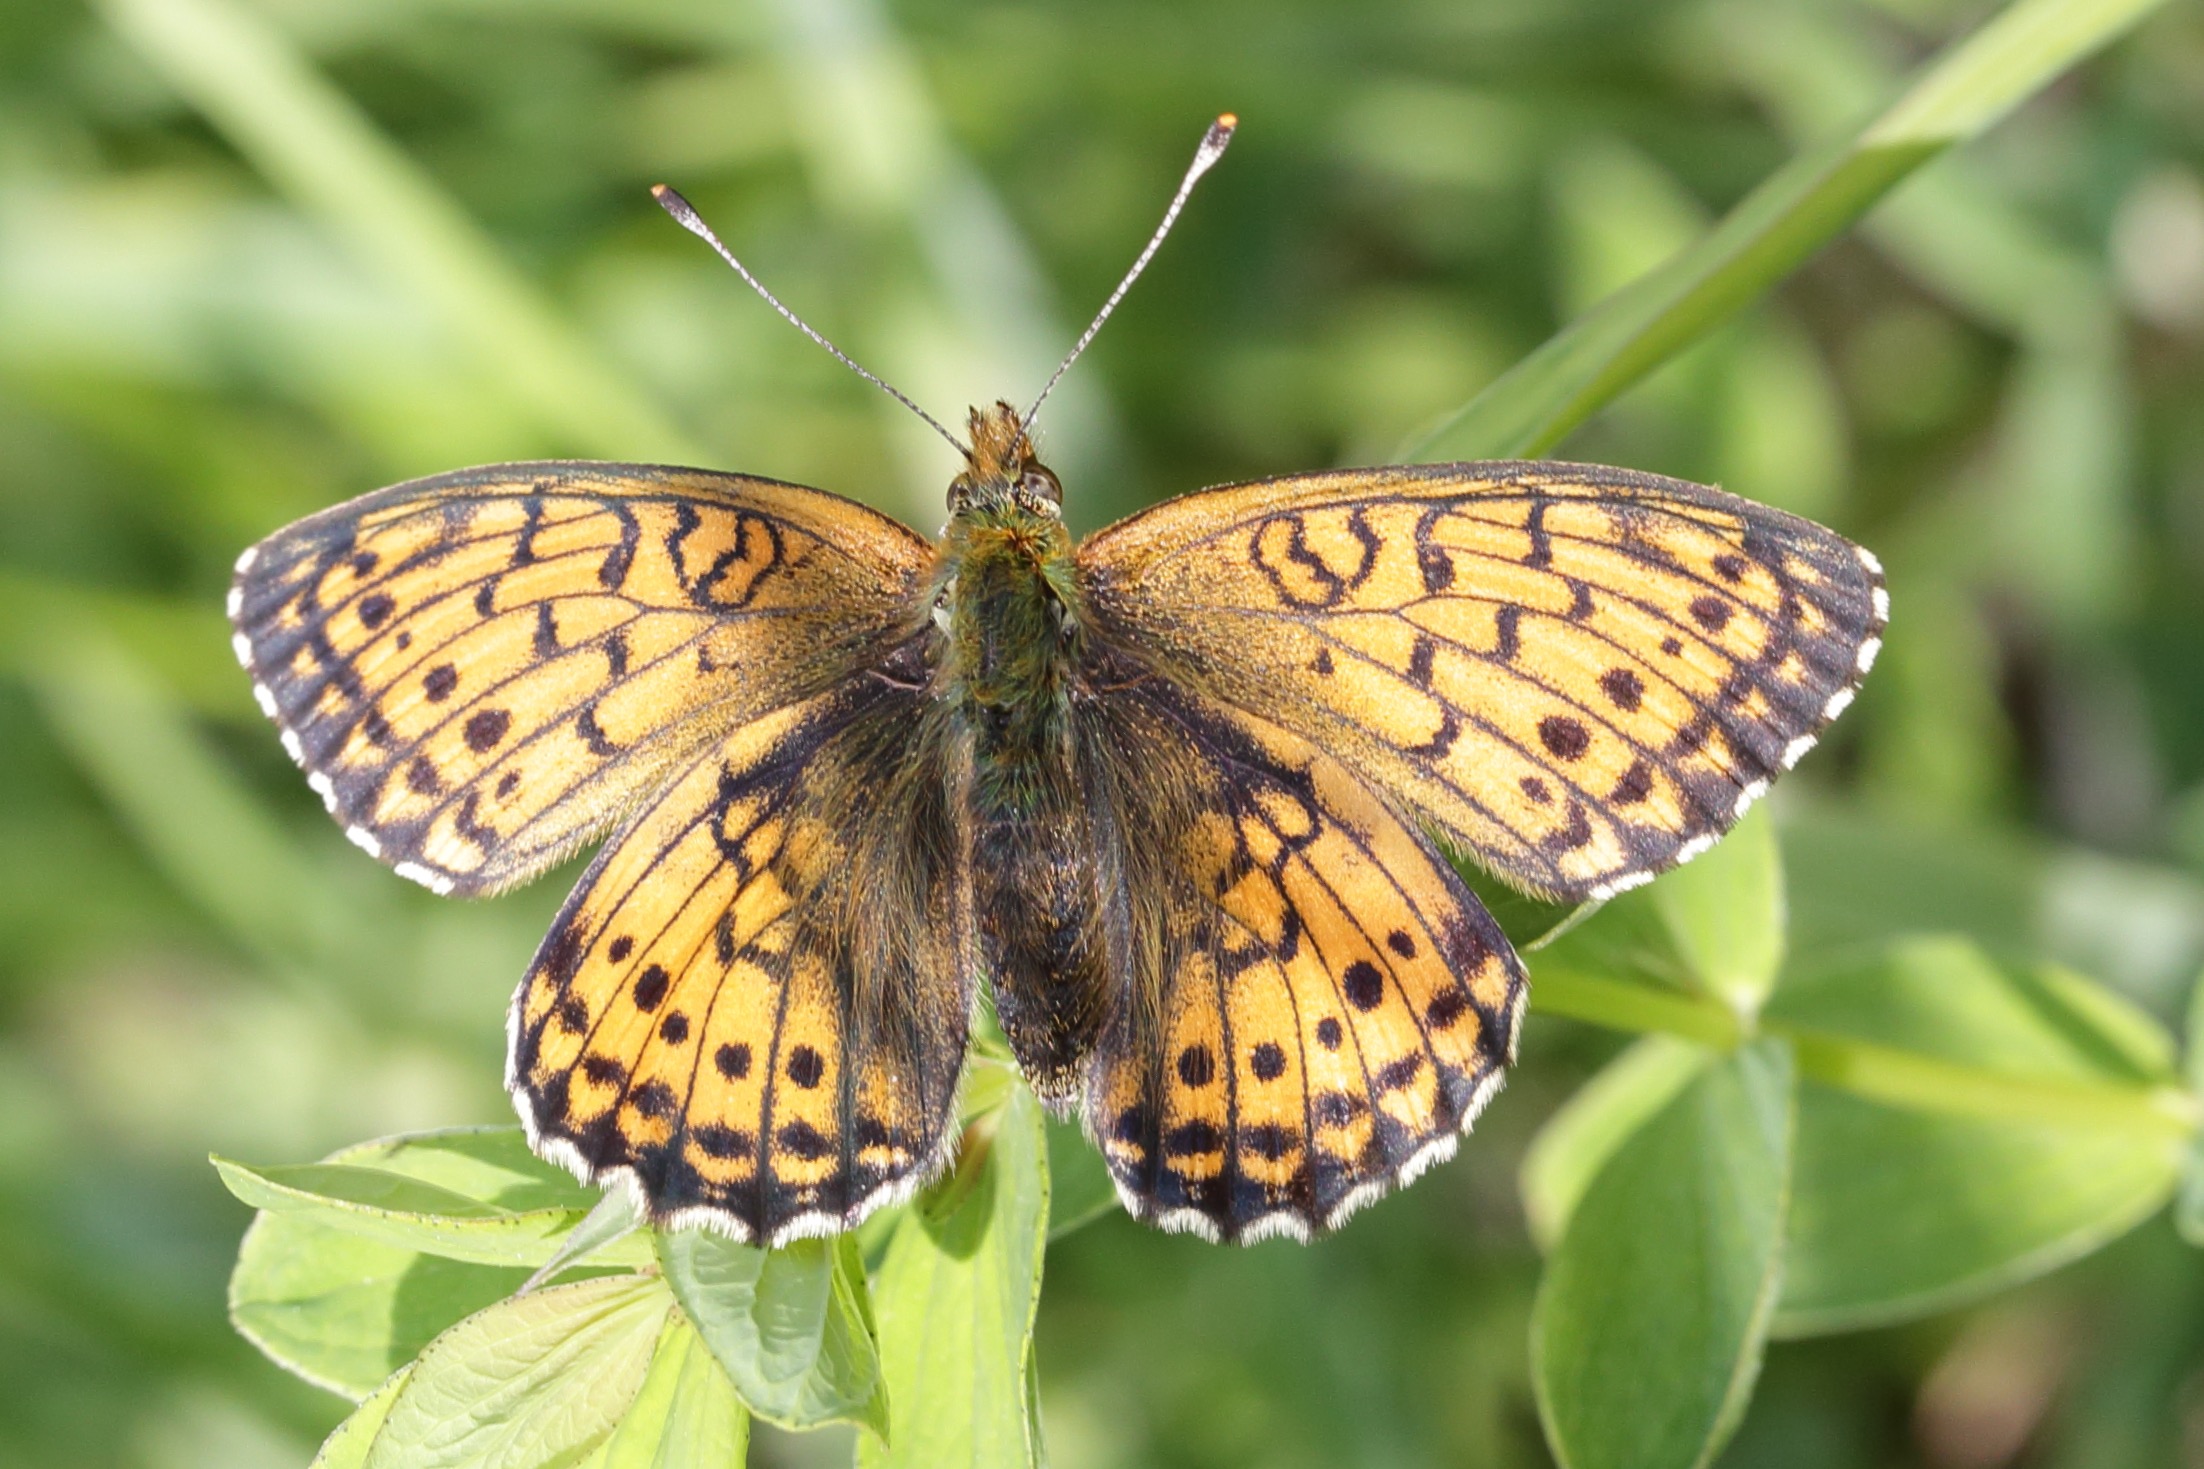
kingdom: Animalia
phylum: Arthropoda
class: Insecta
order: Lepidoptera
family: Nymphalidae
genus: Brenthis
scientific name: Brenthis ino
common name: Engperlemorsommerfugl
